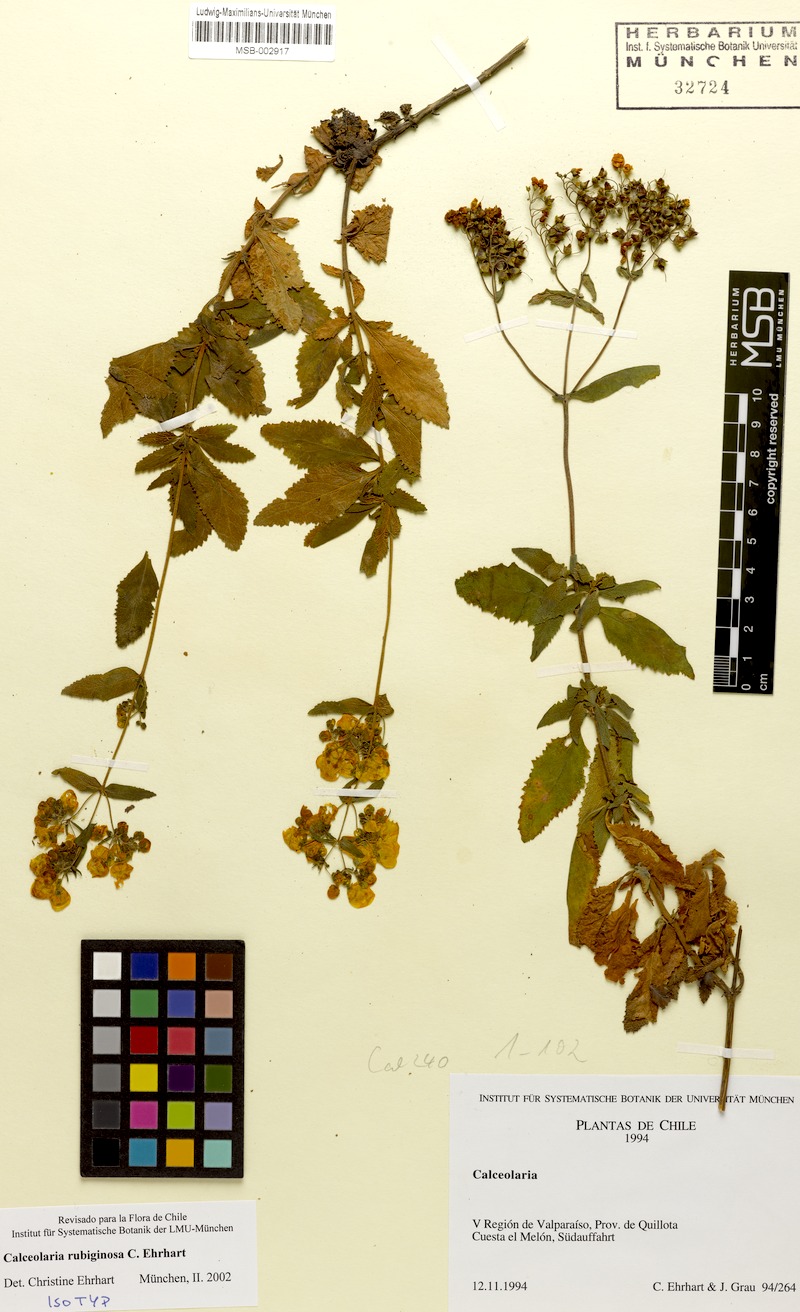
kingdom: Plantae
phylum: Tracheophyta
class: Magnoliopsida
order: Lamiales
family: Calceolariaceae
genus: Calceolaria
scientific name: Calceolaria rubiginosa
